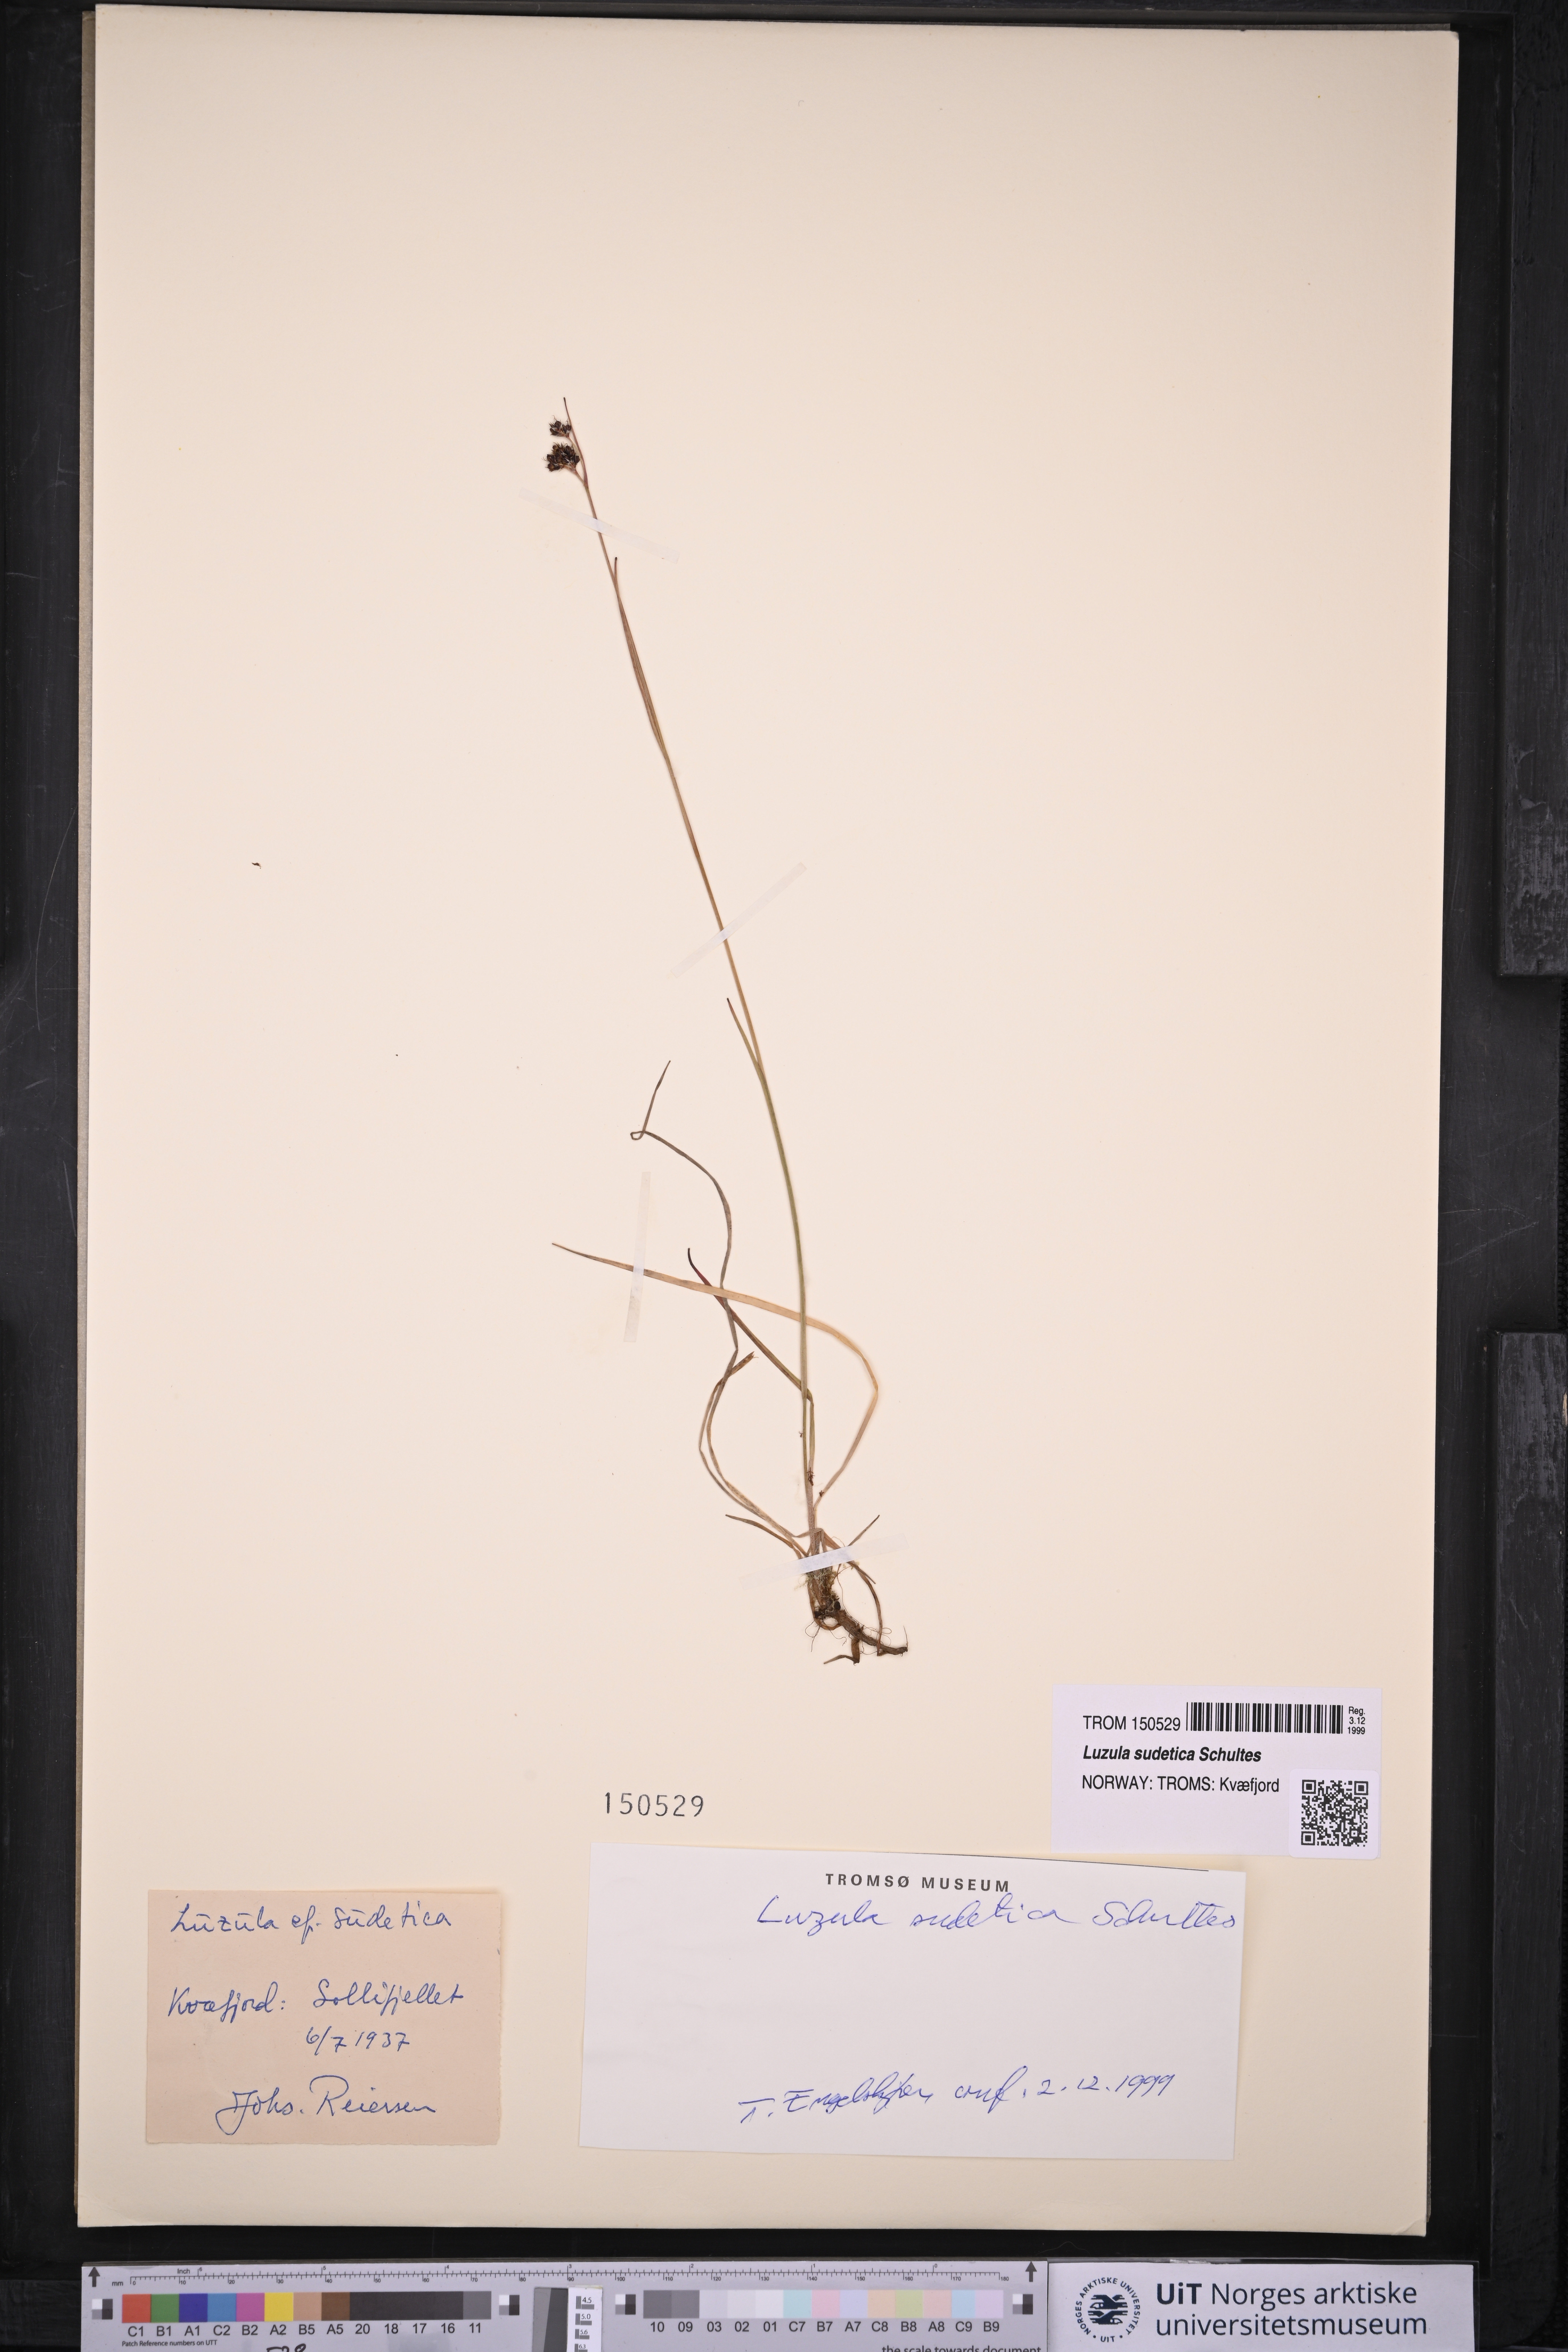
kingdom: Plantae
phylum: Tracheophyta
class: Liliopsida
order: Poales
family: Juncaceae
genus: Luzula
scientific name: Luzula sudetica
